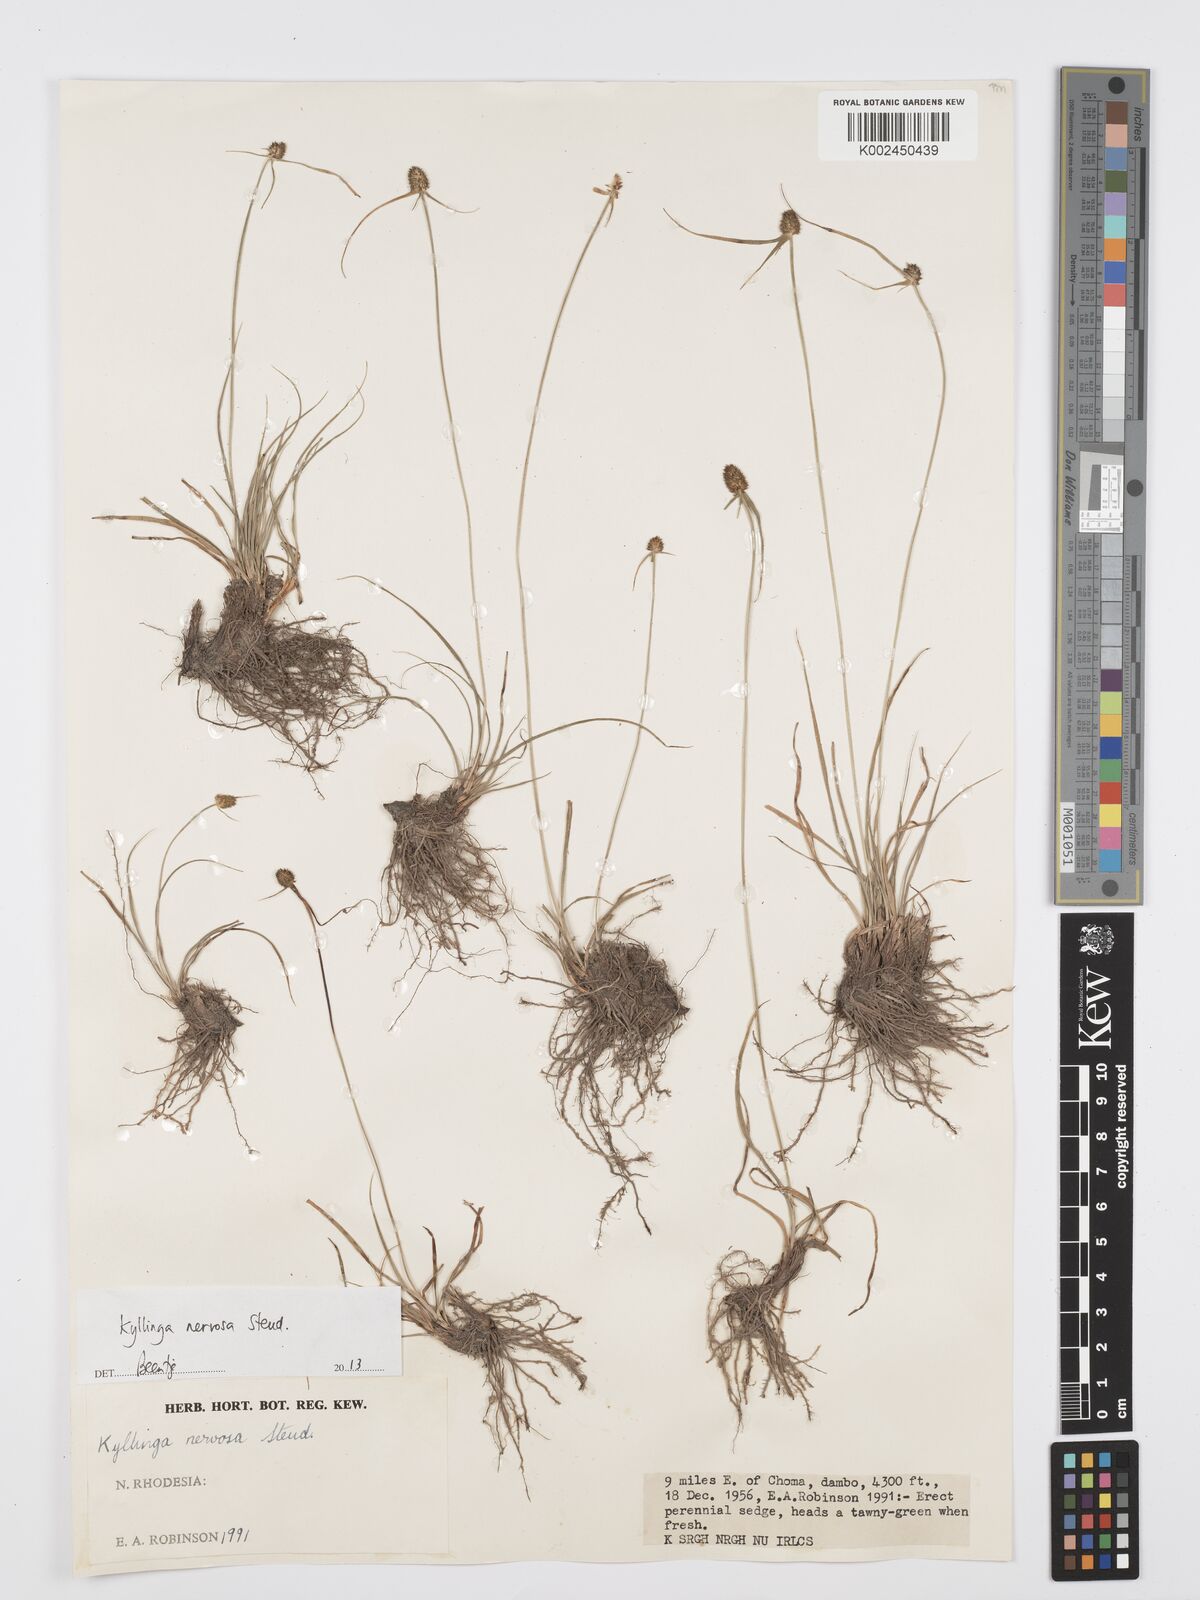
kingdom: Plantae
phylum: Tracheophyta
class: Liliopsida
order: Poales
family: Cyperaceae
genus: Cyperus
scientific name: Cyperus
